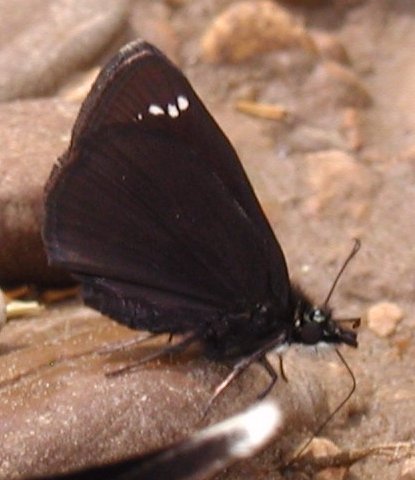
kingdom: Animalia
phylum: Arthropoda
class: Insecta
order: Lepidoptera
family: Hesperiidae
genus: Pholisora
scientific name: Pholisora catullus
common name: Common Sootywing
